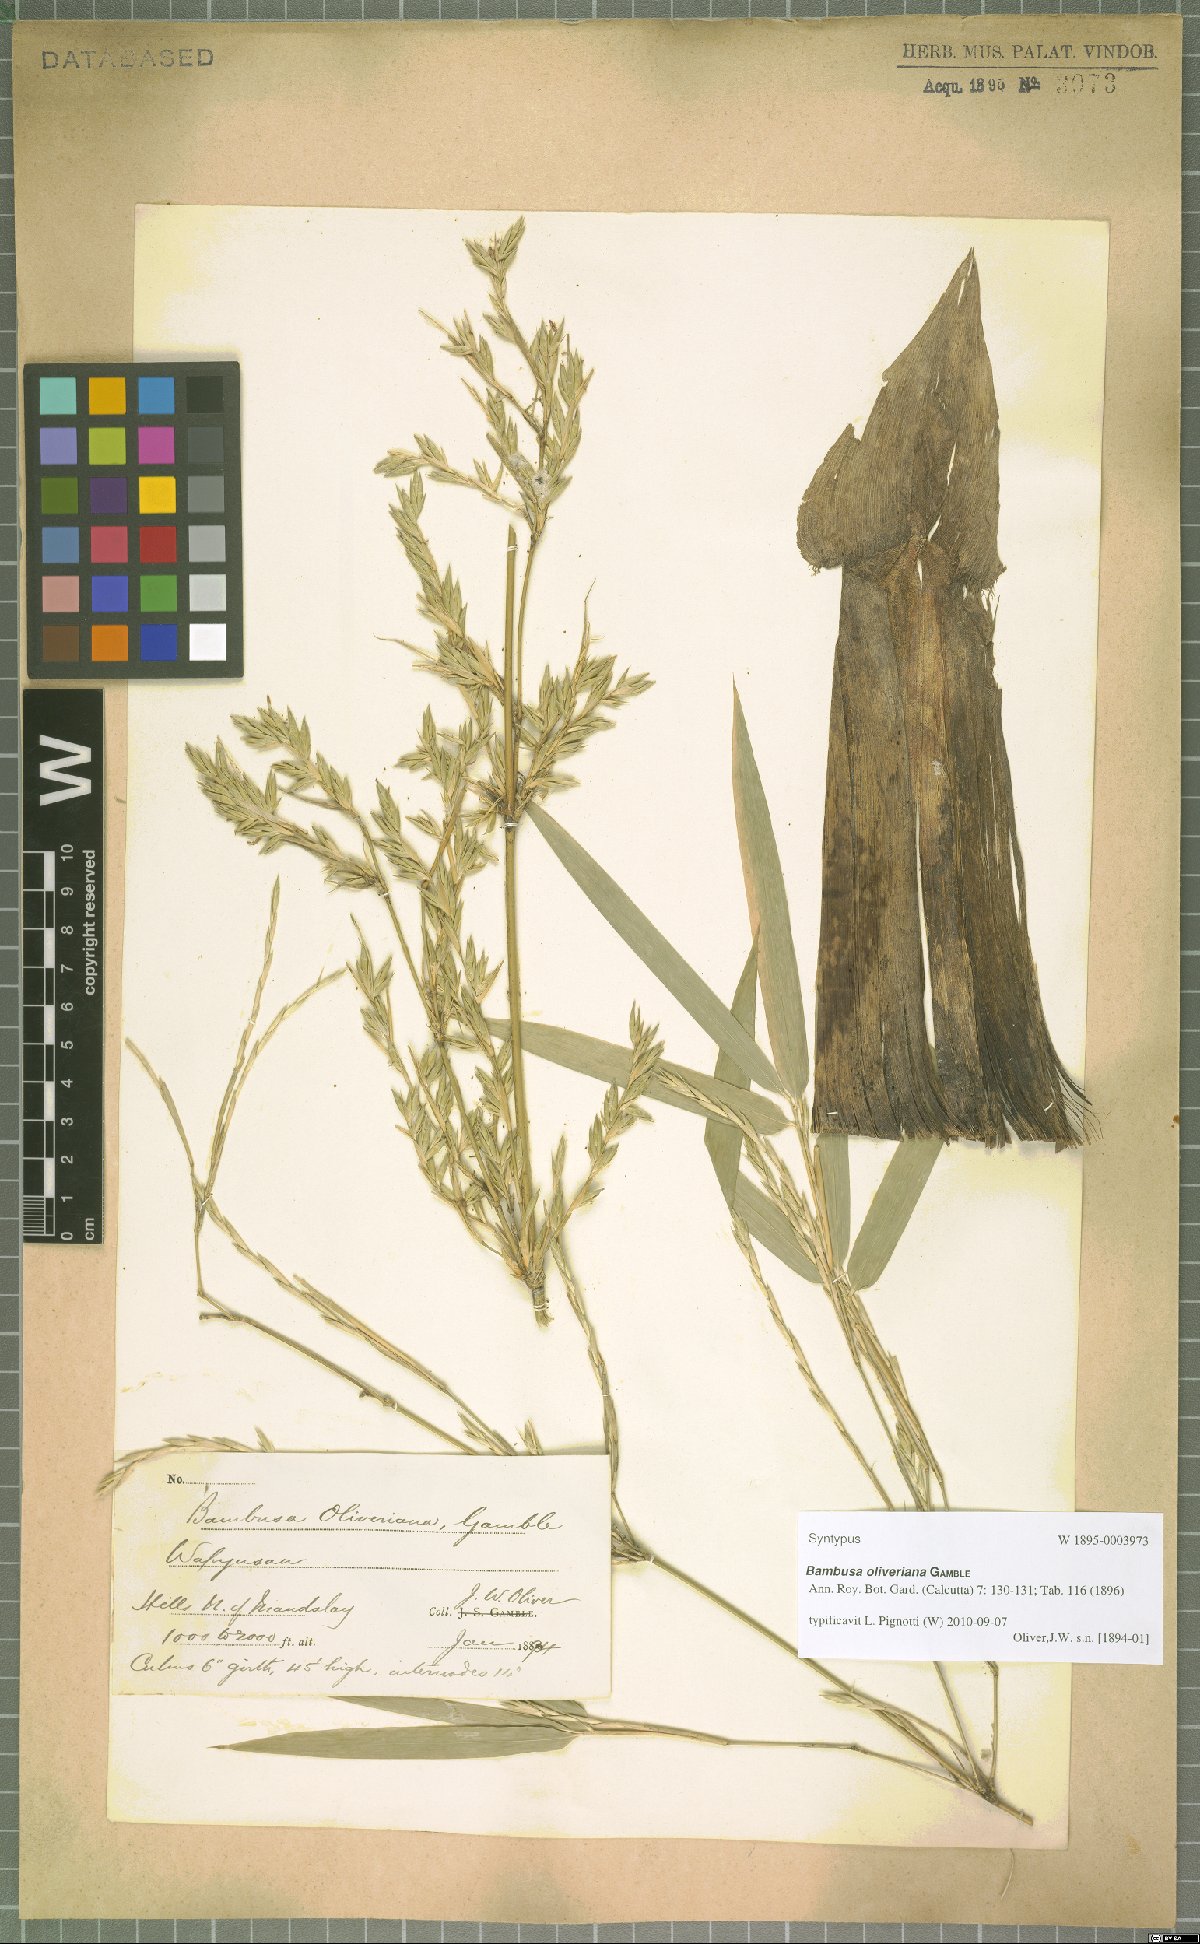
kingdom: Plantae
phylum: Tracheophyta
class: Liliopsida
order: Poales
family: Poaceae
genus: Bambusa
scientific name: Bambusa oliveriana
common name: Bush bamboo
